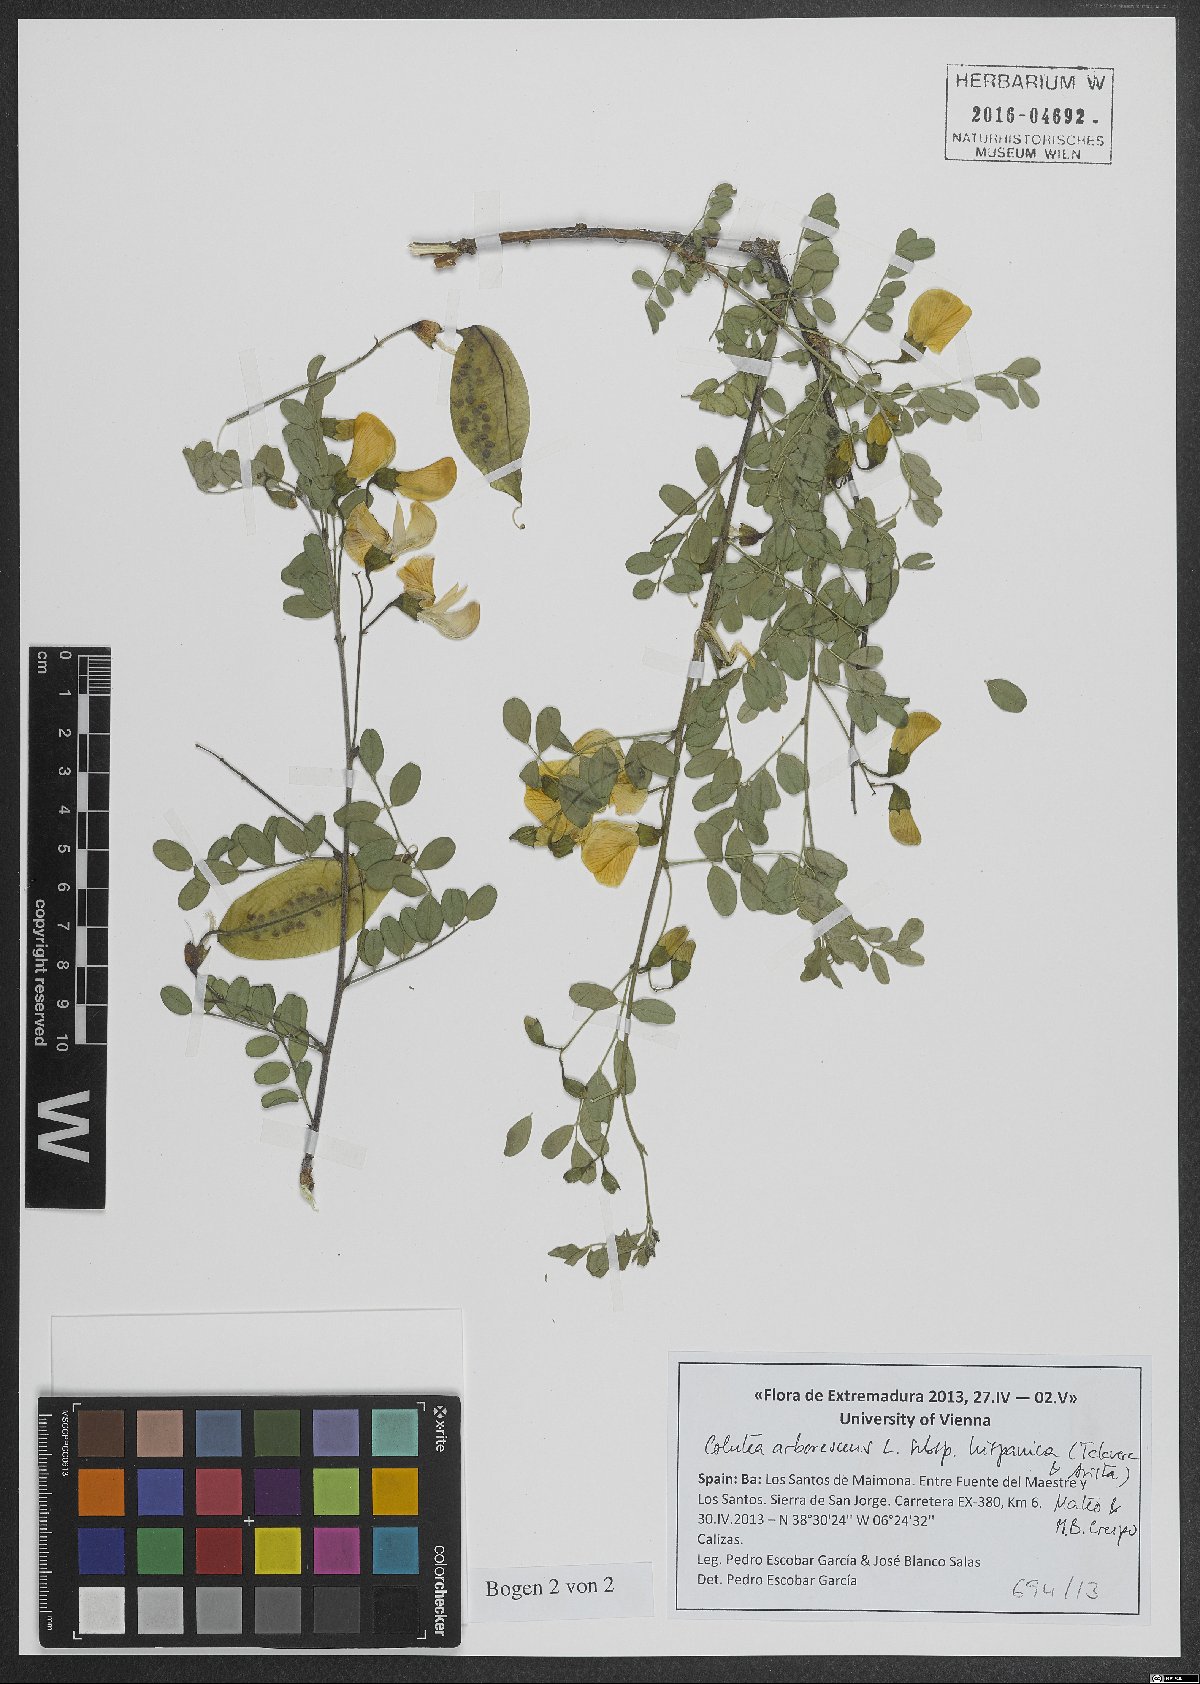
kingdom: Plantae
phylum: Tracheophyta
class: Magnoliopsida
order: Fabales
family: Fabaceae
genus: Colutea
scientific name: Colutea arborescens
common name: Bladder-senna
